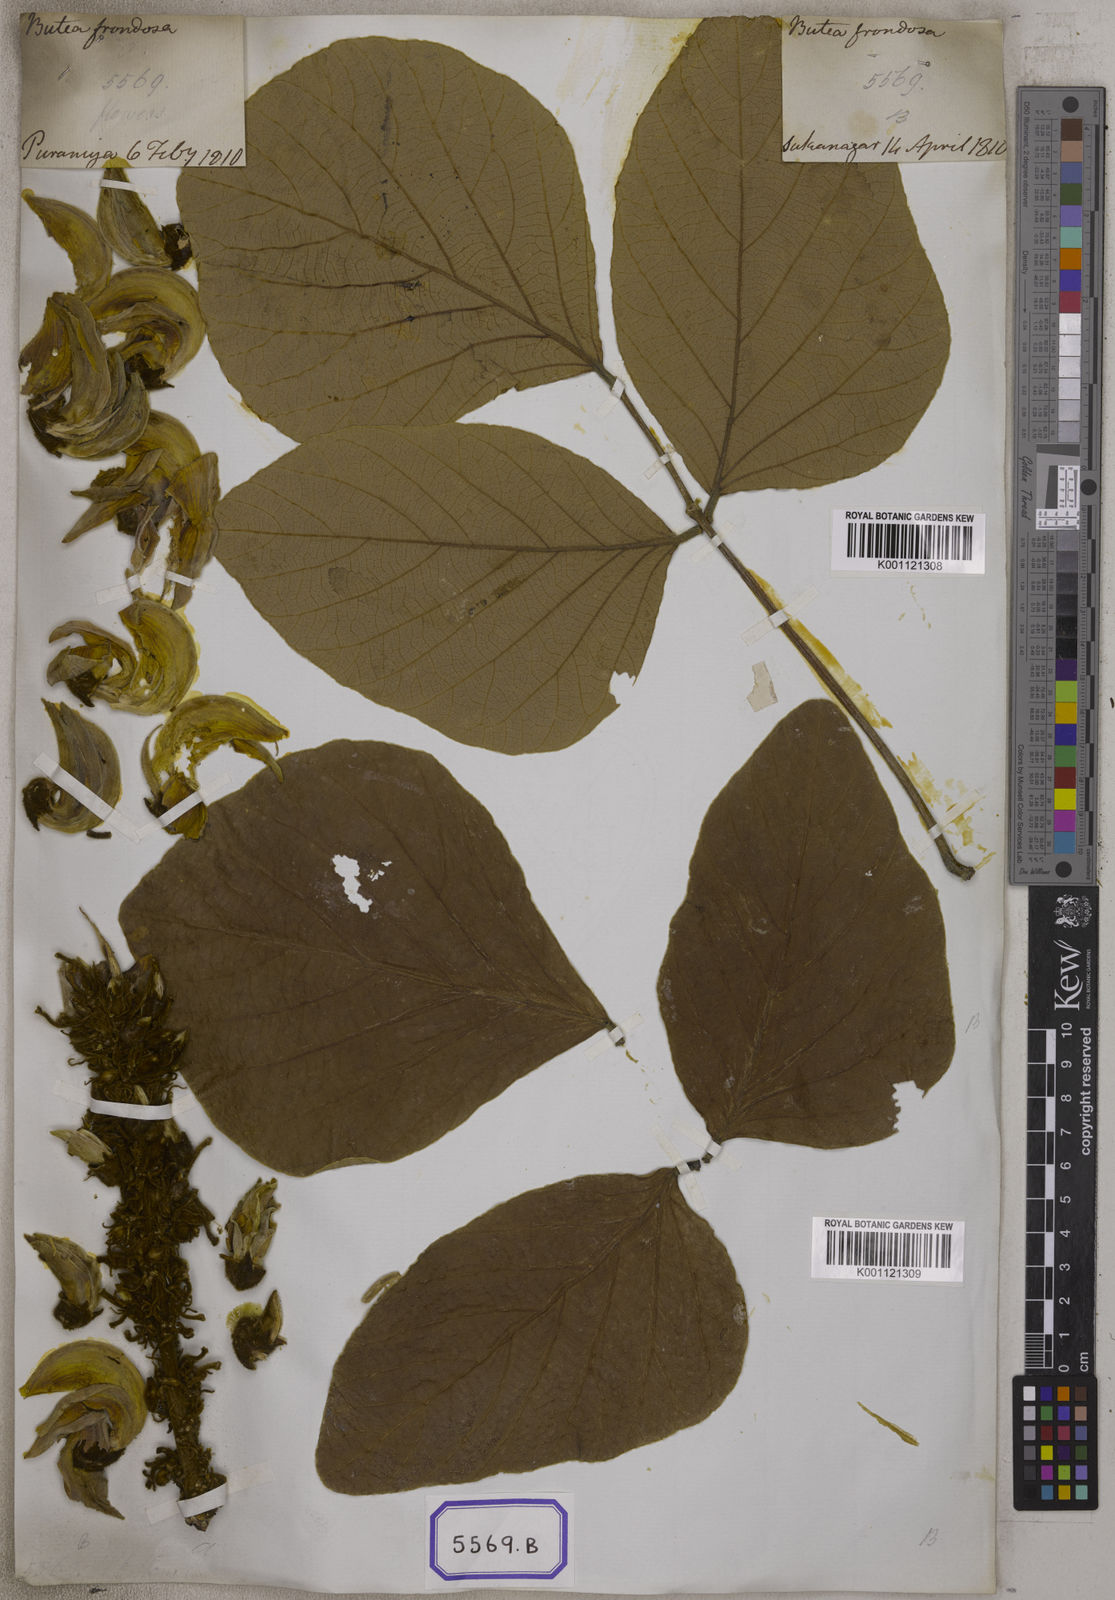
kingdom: Plantae
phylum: Tracheophyta
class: Magnoliopsida
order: Fabales
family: Fabaceae
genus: Butea
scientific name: Butea
